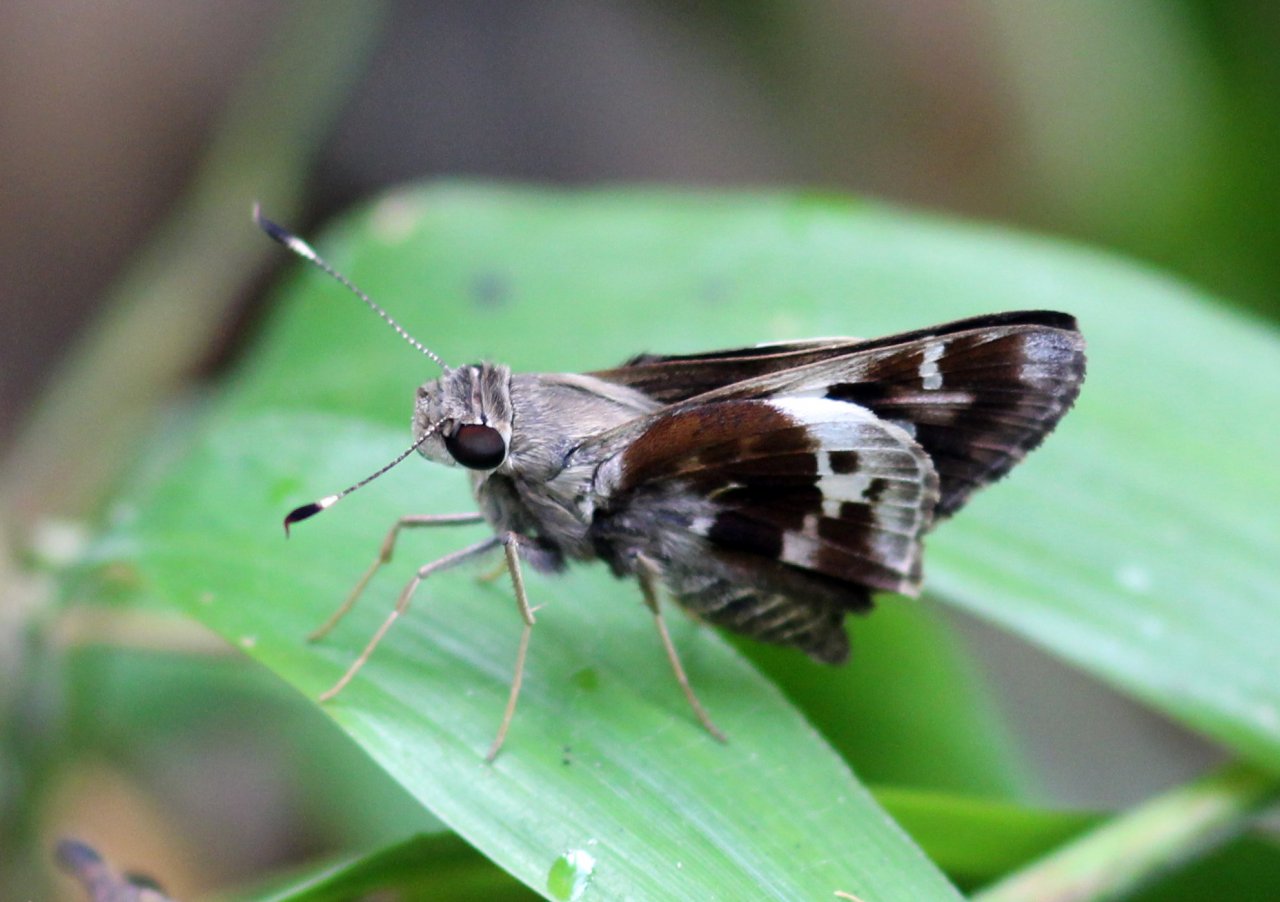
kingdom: Animalia
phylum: Arthropoda
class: Insecta
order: Lepidoptera
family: Hesperiidae
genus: Vacerra
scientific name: Vacerra
